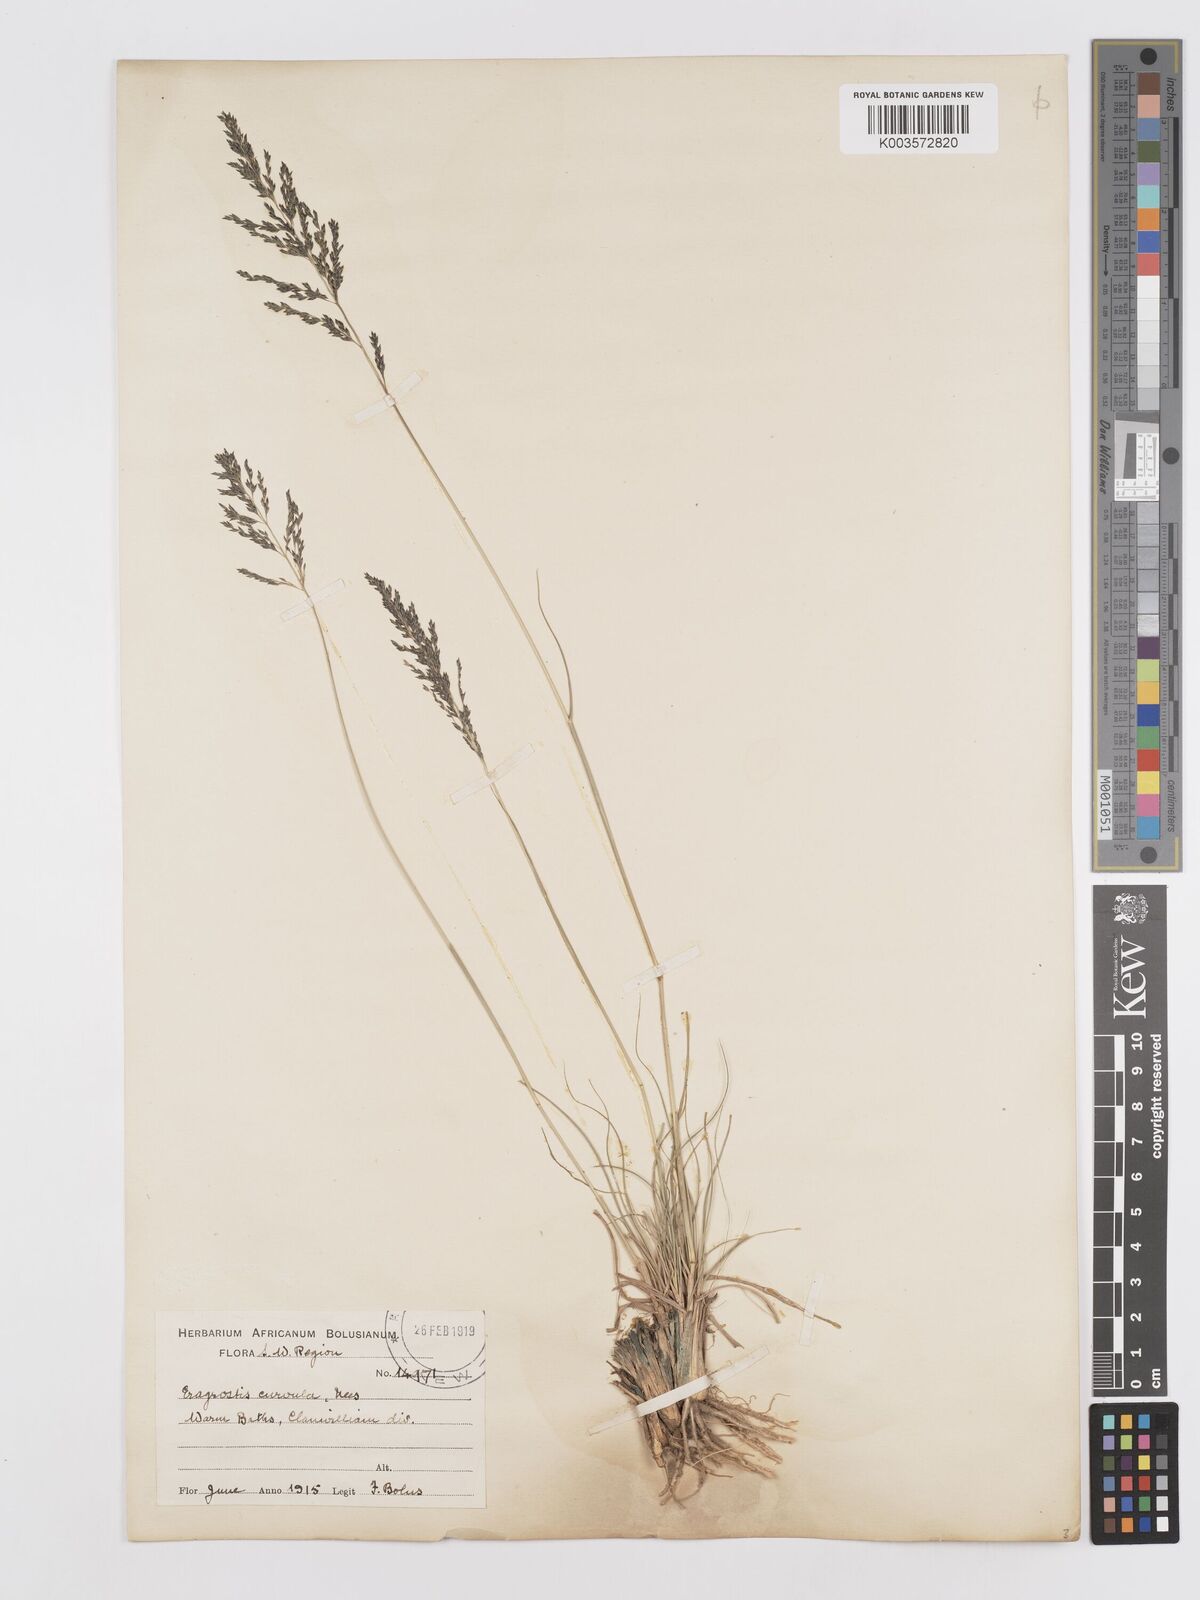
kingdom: Plantae
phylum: Tracheophyta
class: Liliopsida
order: Poales
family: Poaceae
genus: Eragrostis
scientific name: Eragrostis curvula
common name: African love-grass
